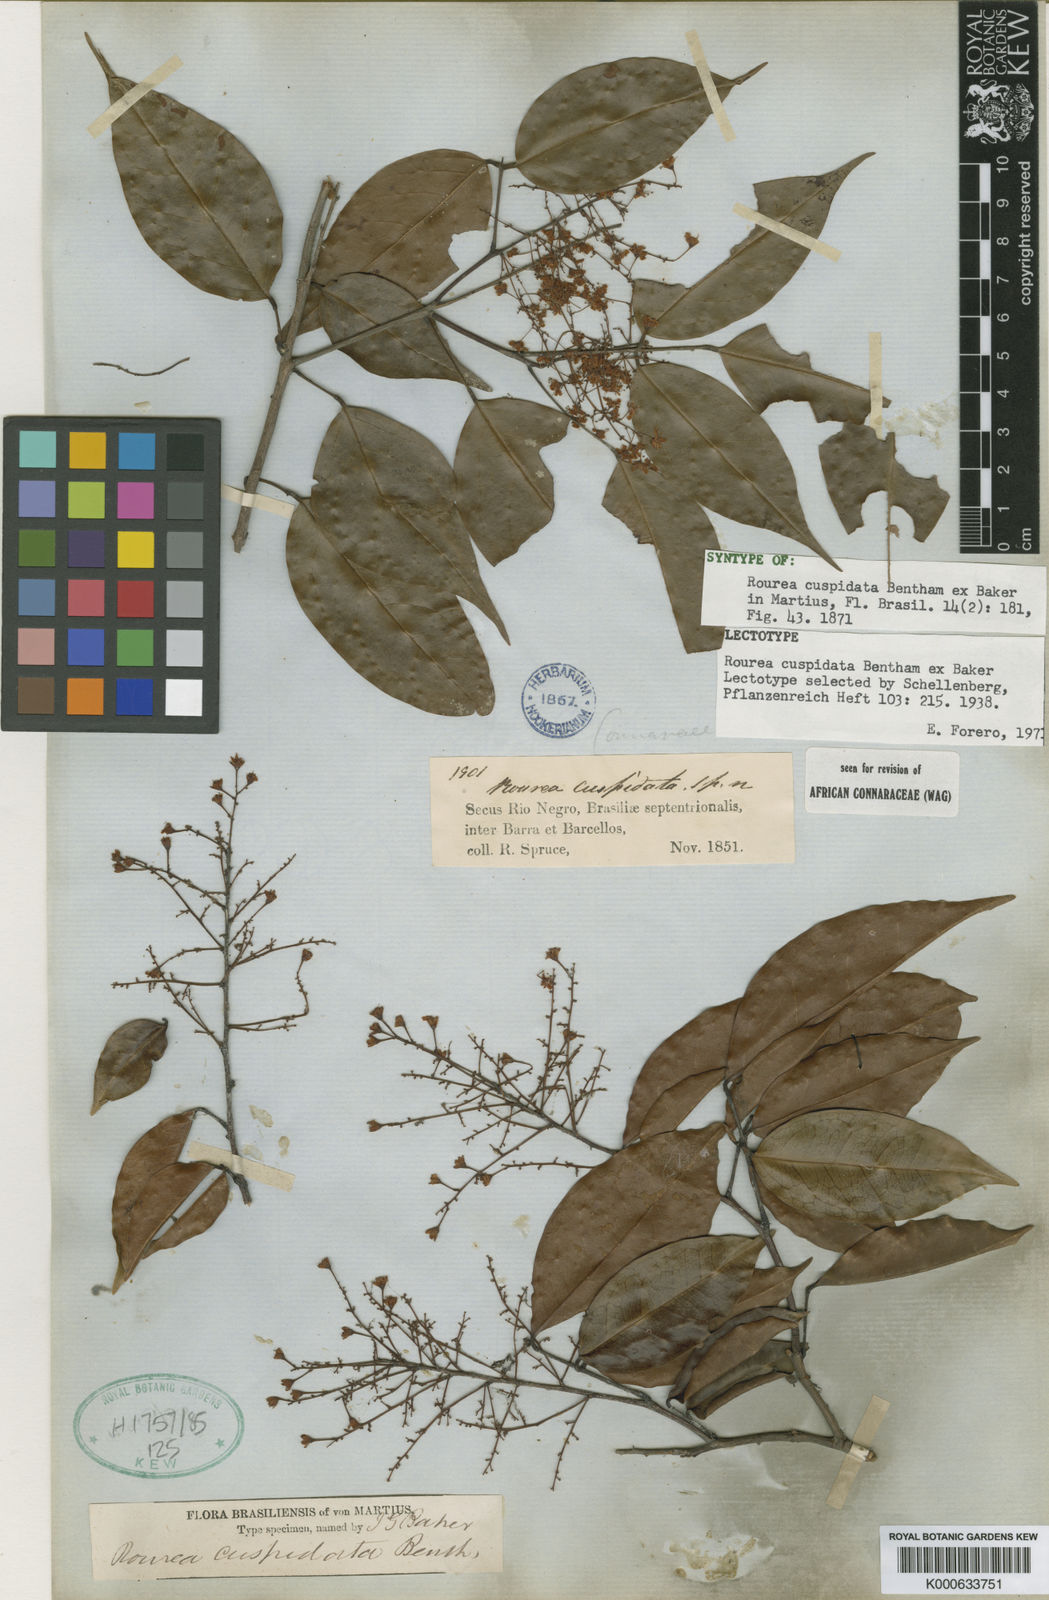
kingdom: Plantae
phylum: Tracheophyta
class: Magnoliopsida
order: Oxalidales
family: Connaraceae
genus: Rourea
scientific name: Rourea cuspidata
